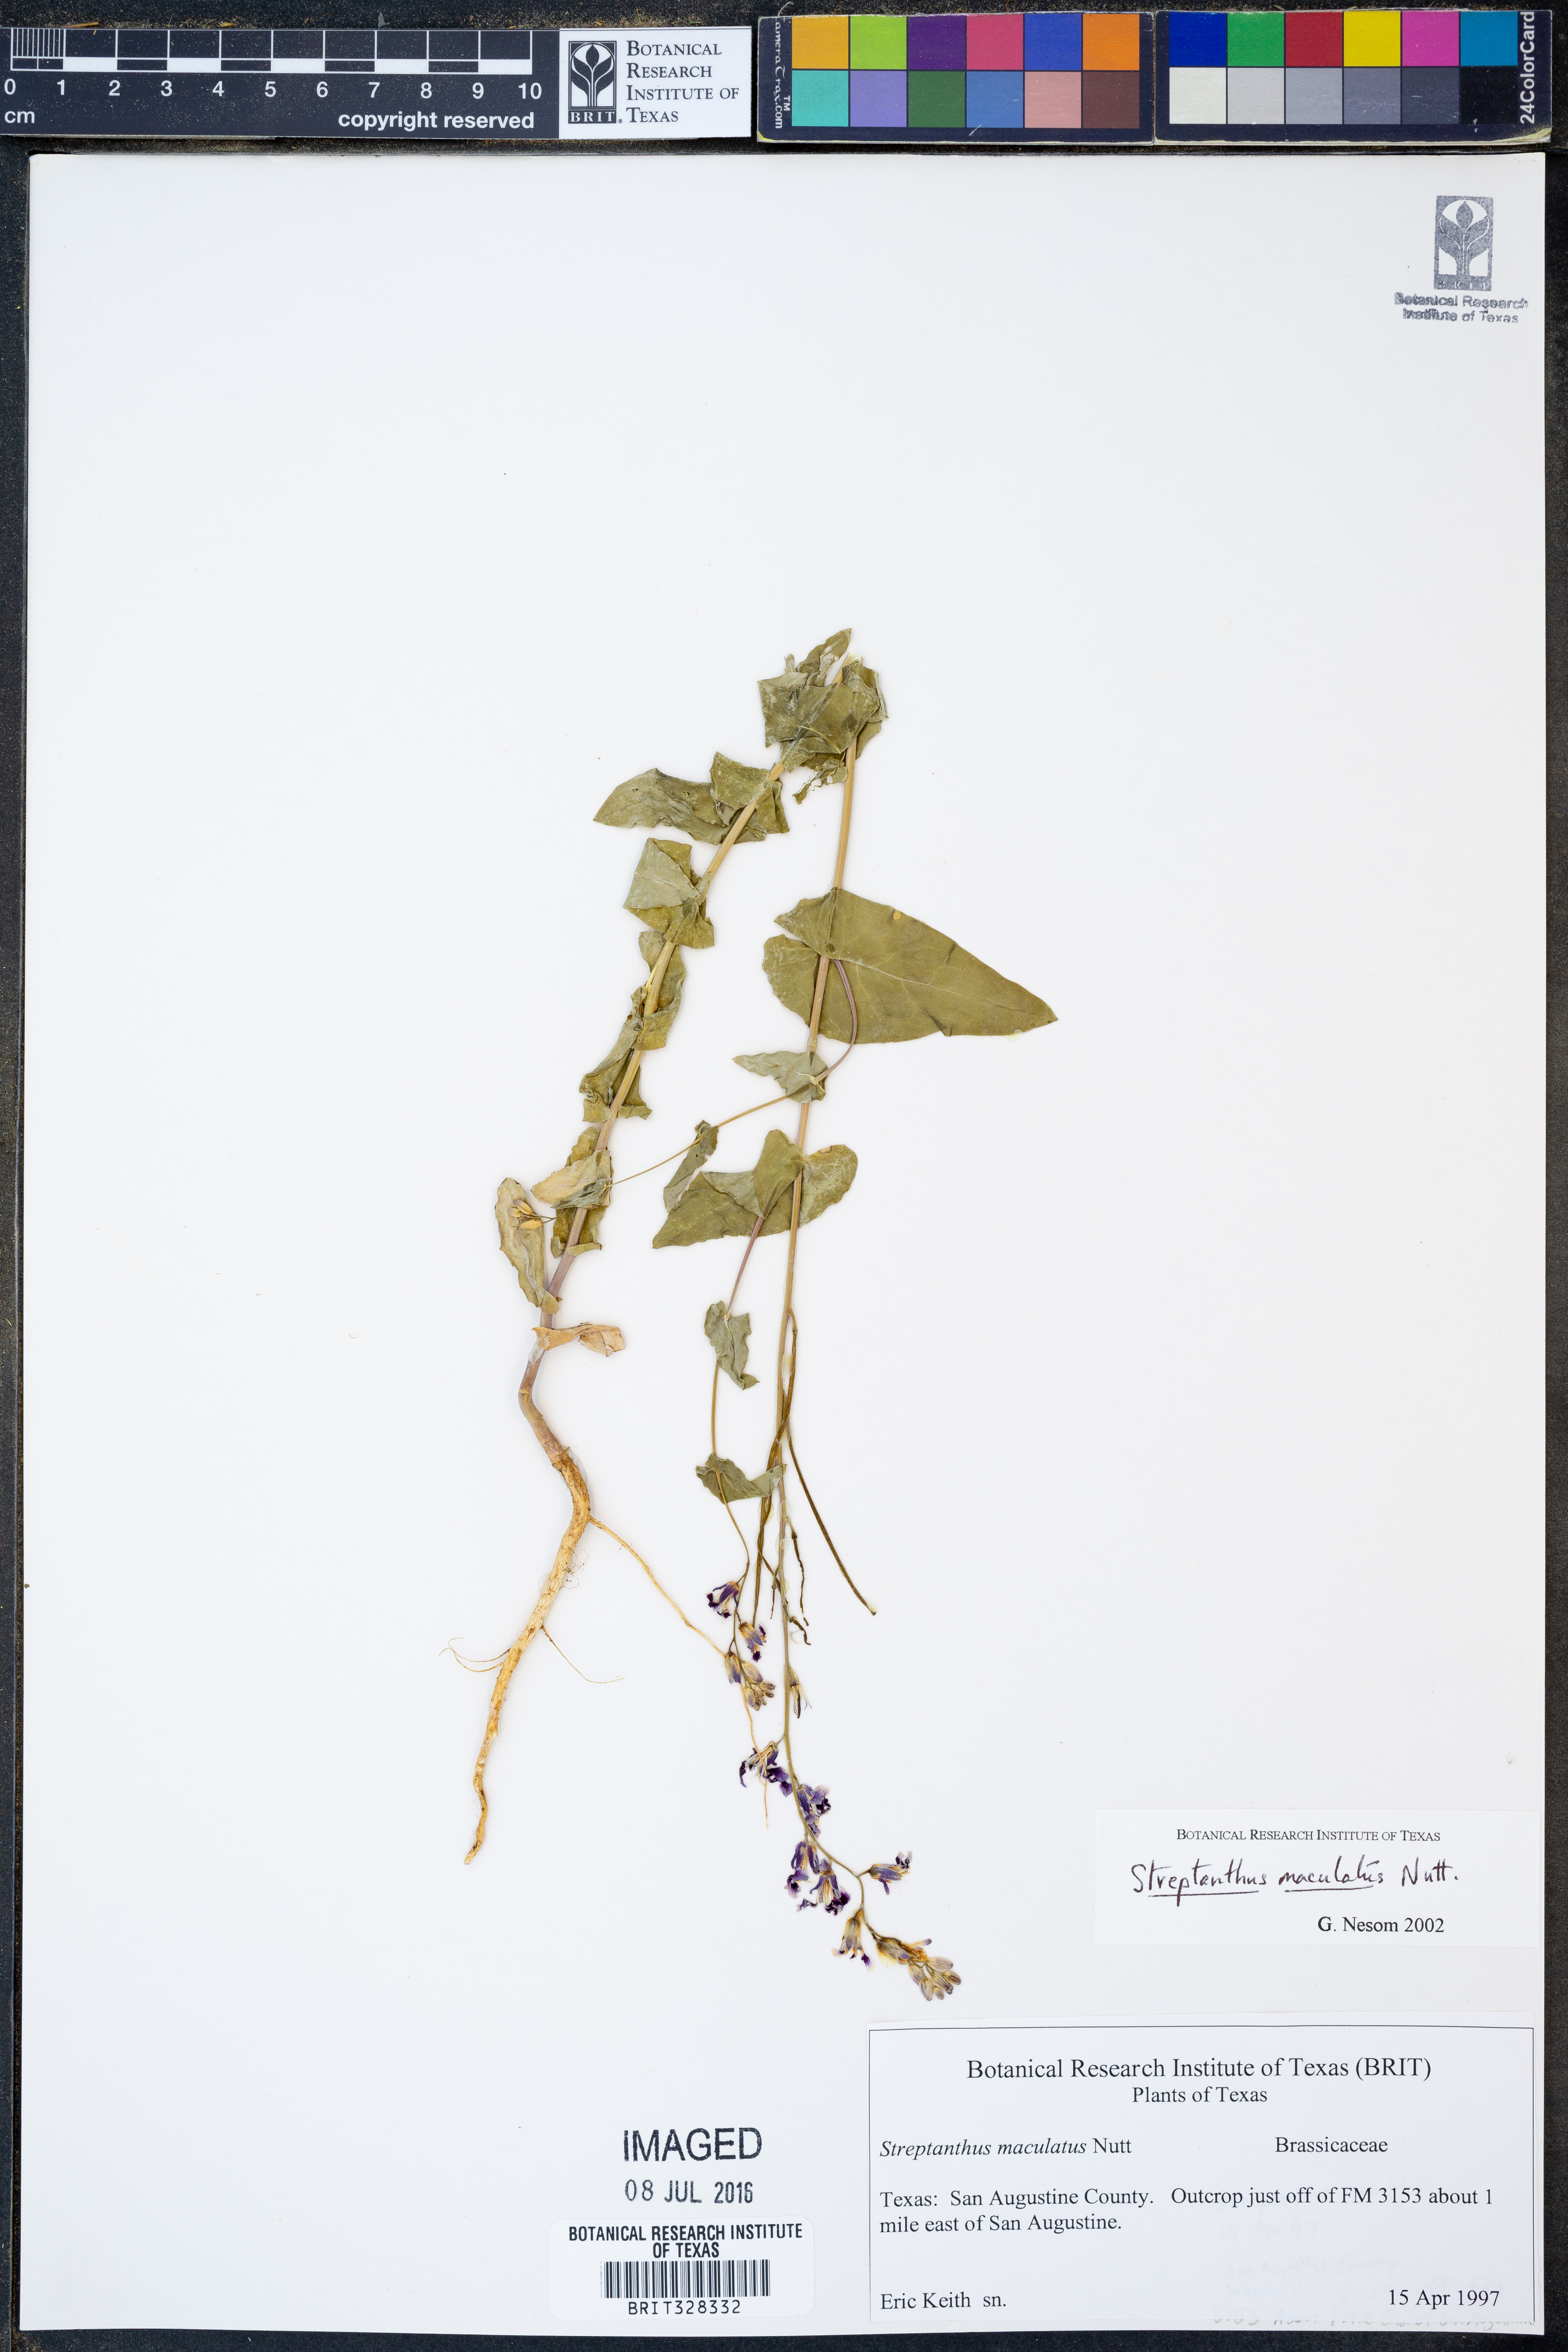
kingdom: Plantae
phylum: Tracheophyta
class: Magnoliopsida
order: Brassicales
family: Brassicaceae
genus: Streptanthus
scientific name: Streptanthus maculatus
